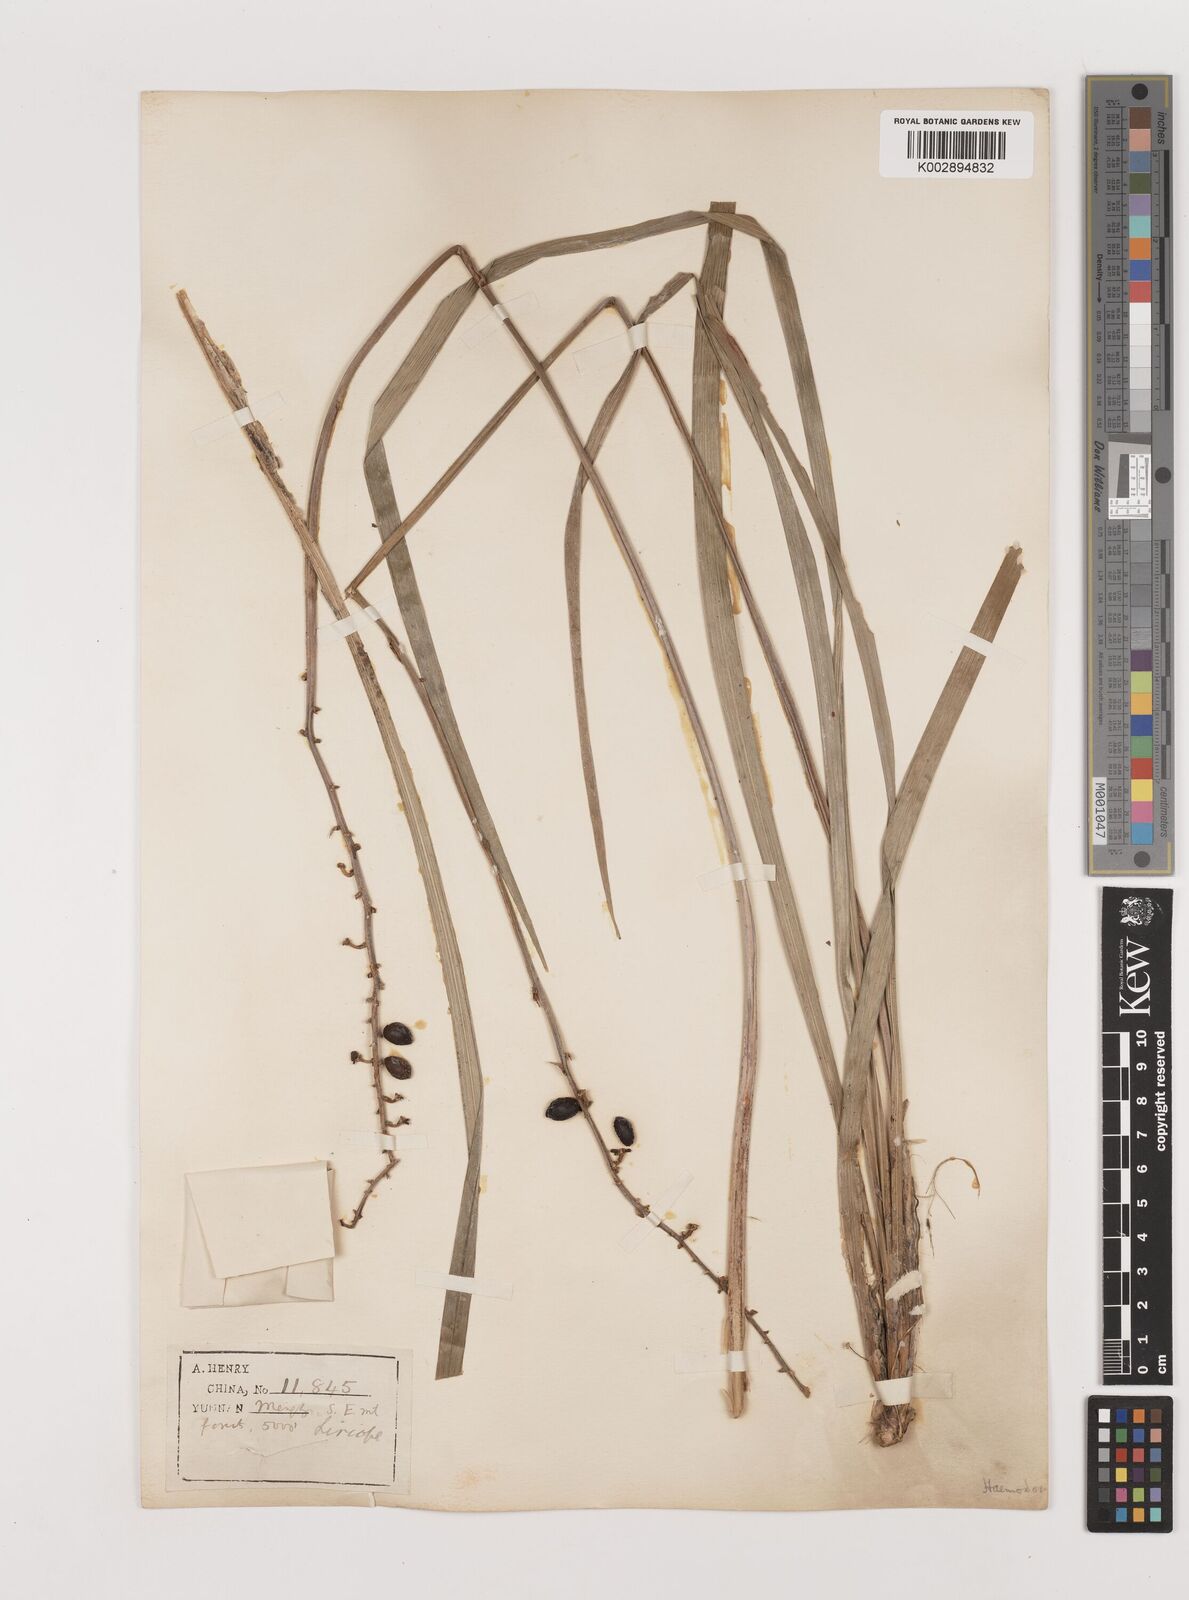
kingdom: Plantae
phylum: Tracheophyta
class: Liliopsida
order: Asparagales
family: Asparagaceae
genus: Ophiopogon
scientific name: Ophiopogon
